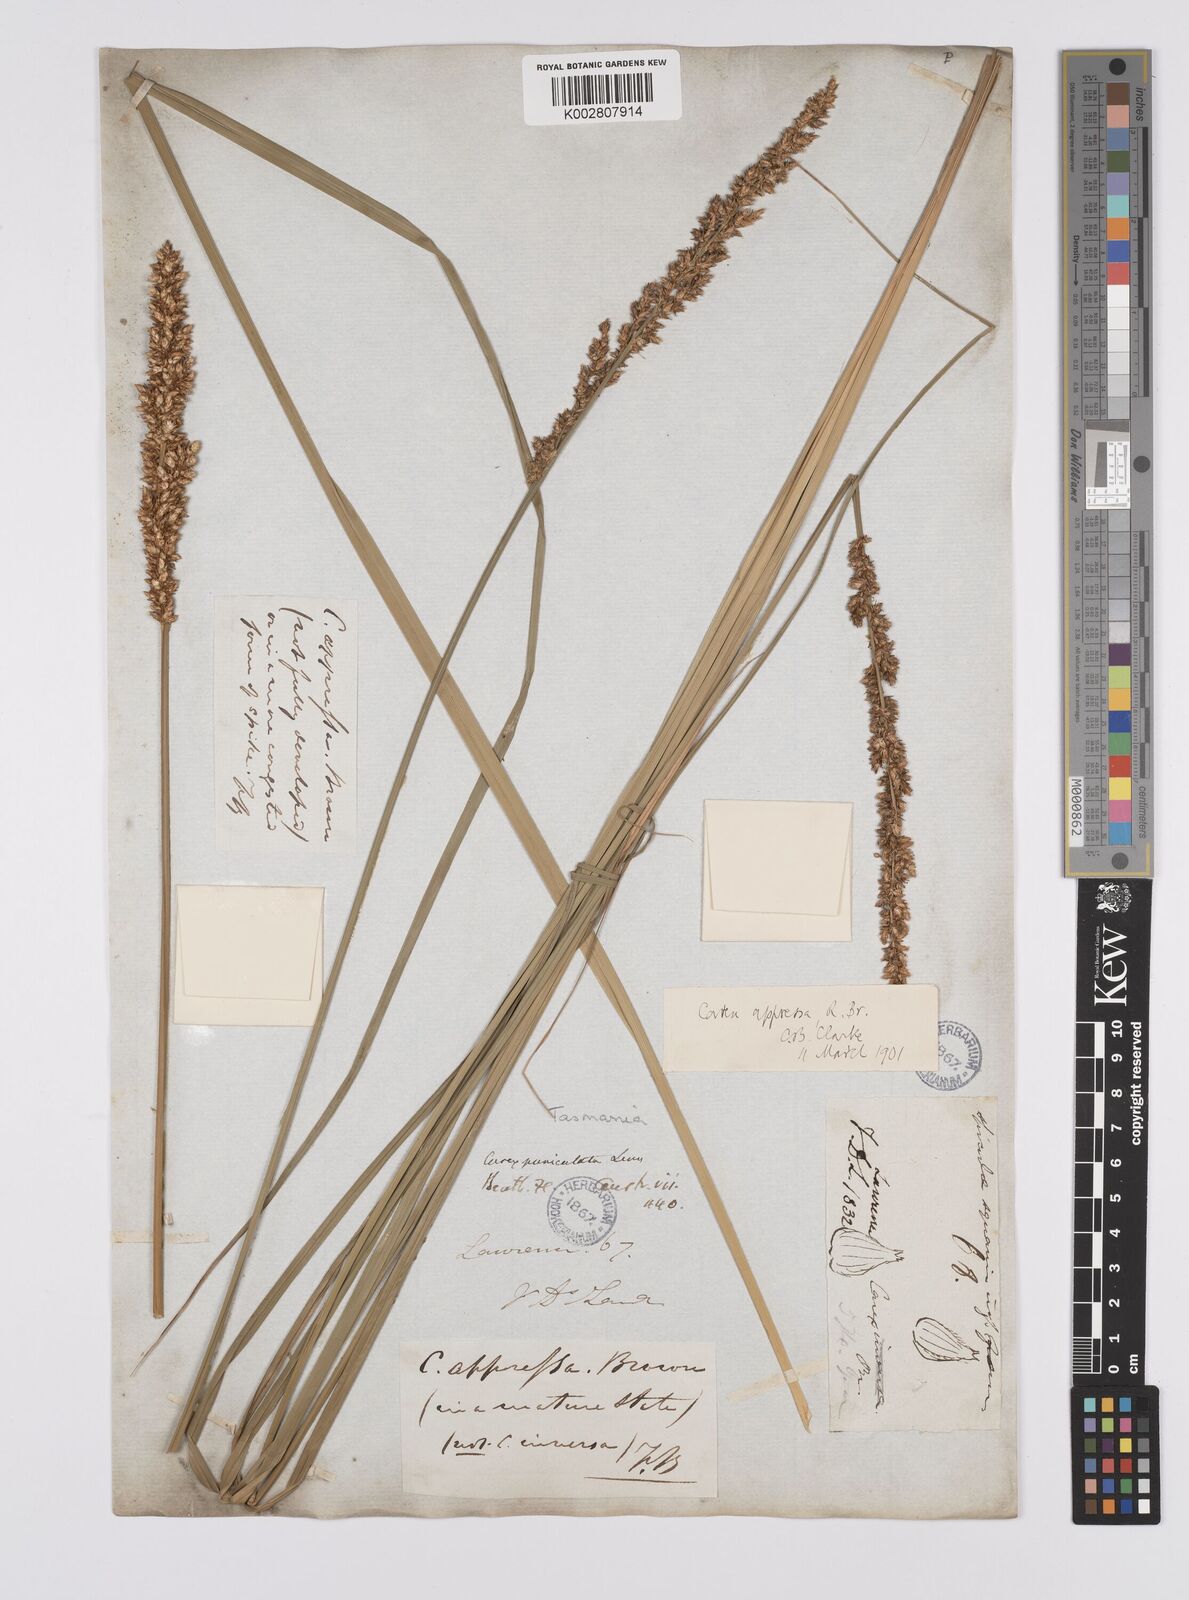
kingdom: Plantae
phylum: Tracheophyta
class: Liliopsida
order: Poales
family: Cyperaceae
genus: Carex
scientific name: Carex appressa
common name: Tussock sedge
